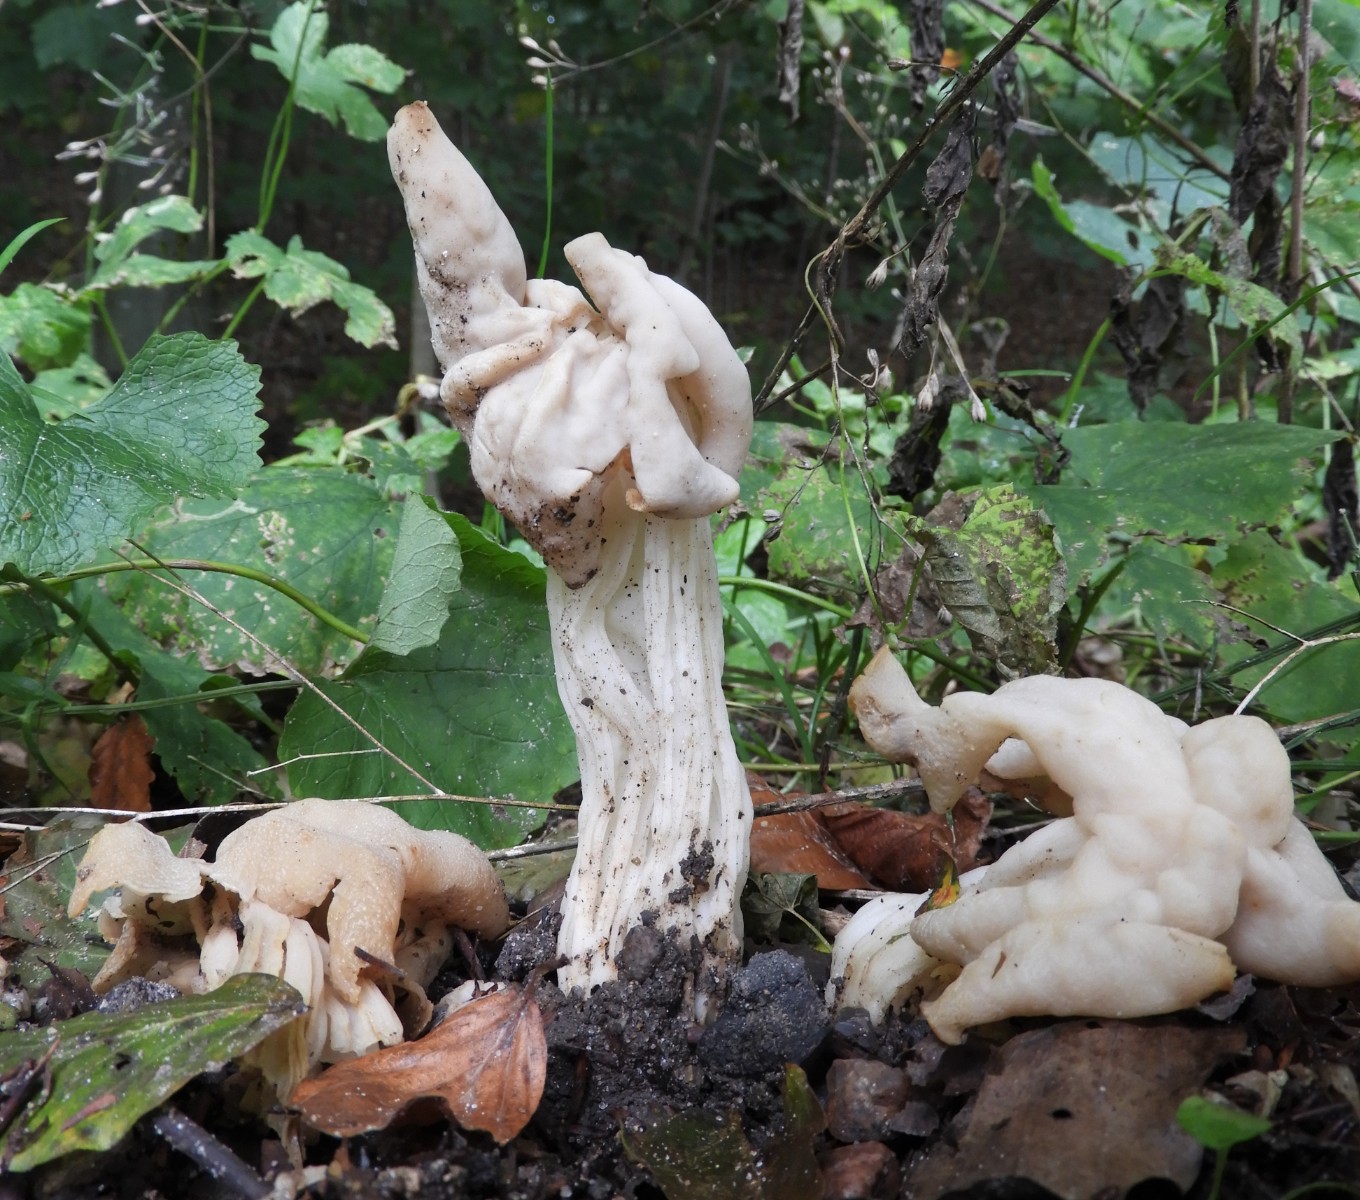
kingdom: Fungi
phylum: Ascomycota
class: Pezizomycetes
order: Pezizales
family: Helvellaceae
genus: Helvella
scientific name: Helvella crispa
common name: kruset foldhat
